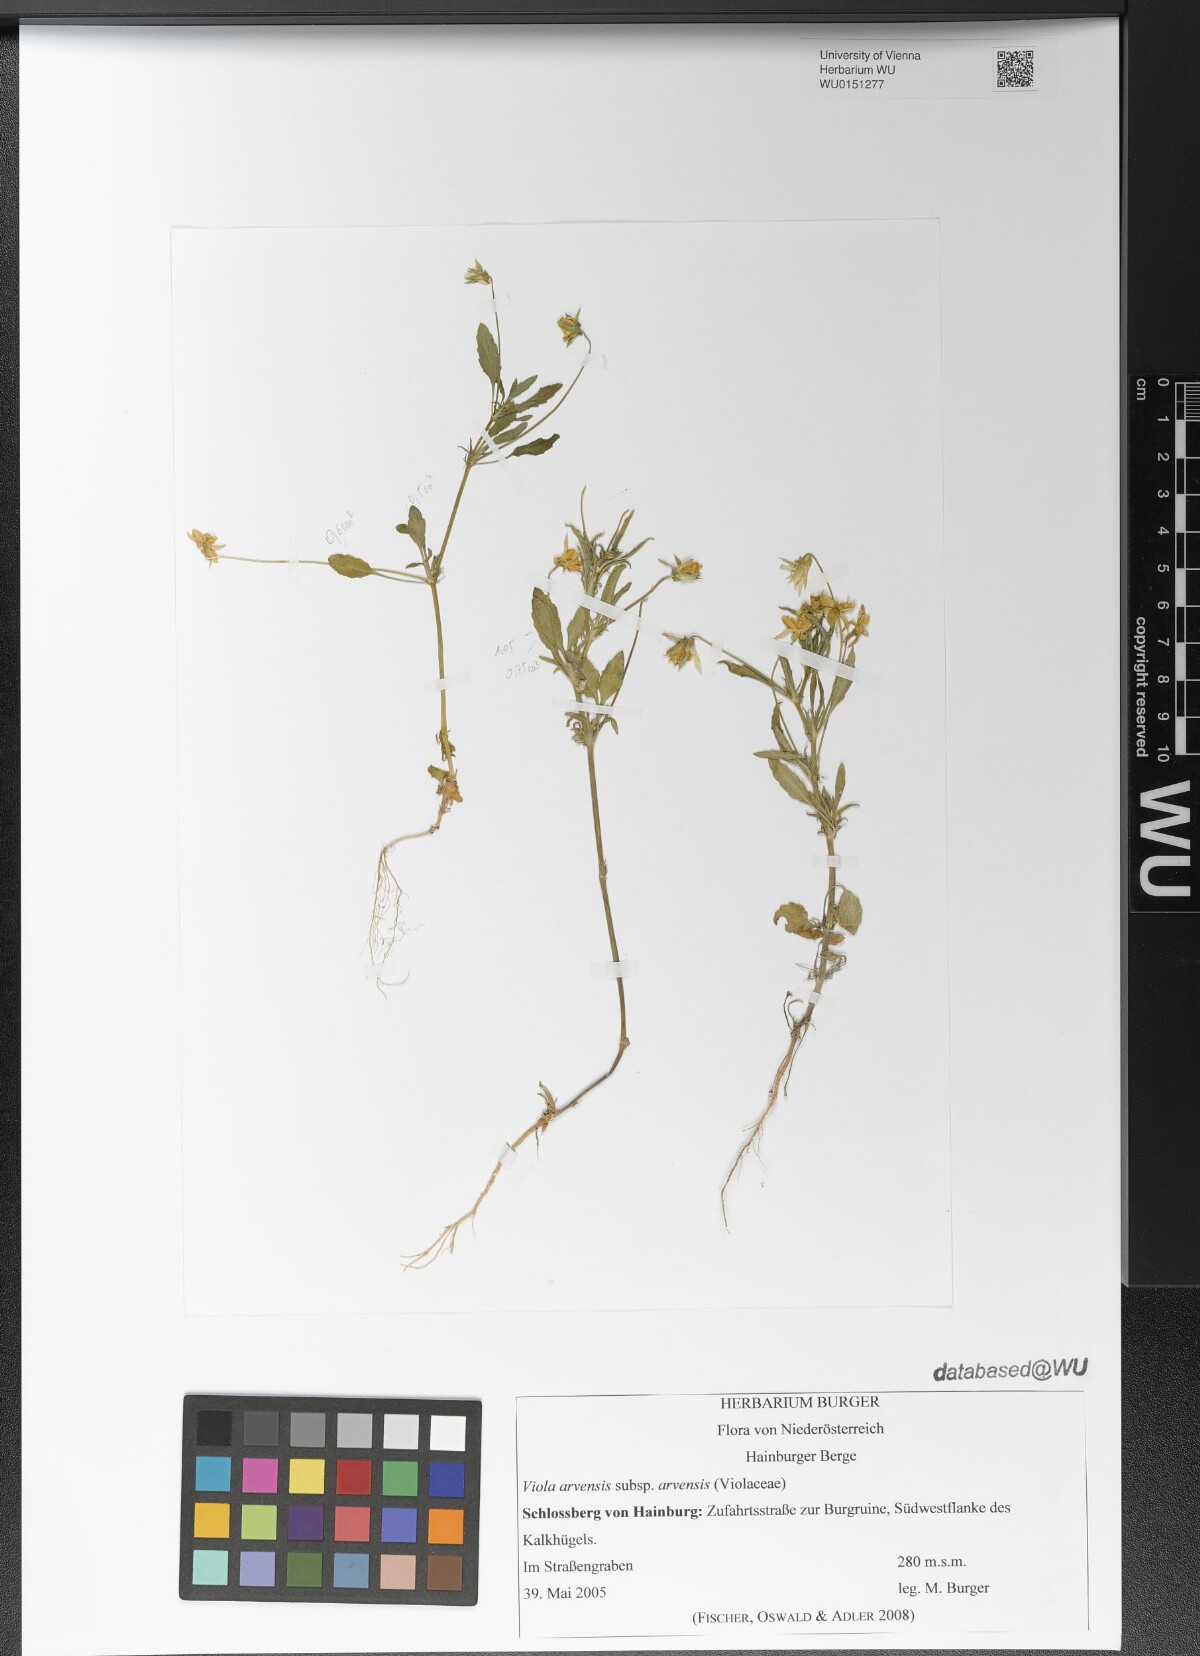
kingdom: Plantae
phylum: Tracheophyta
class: Magnoliopsida
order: Malpighiales
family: Violaceae
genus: Viola
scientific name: Viola arvensis
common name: Field pansy
